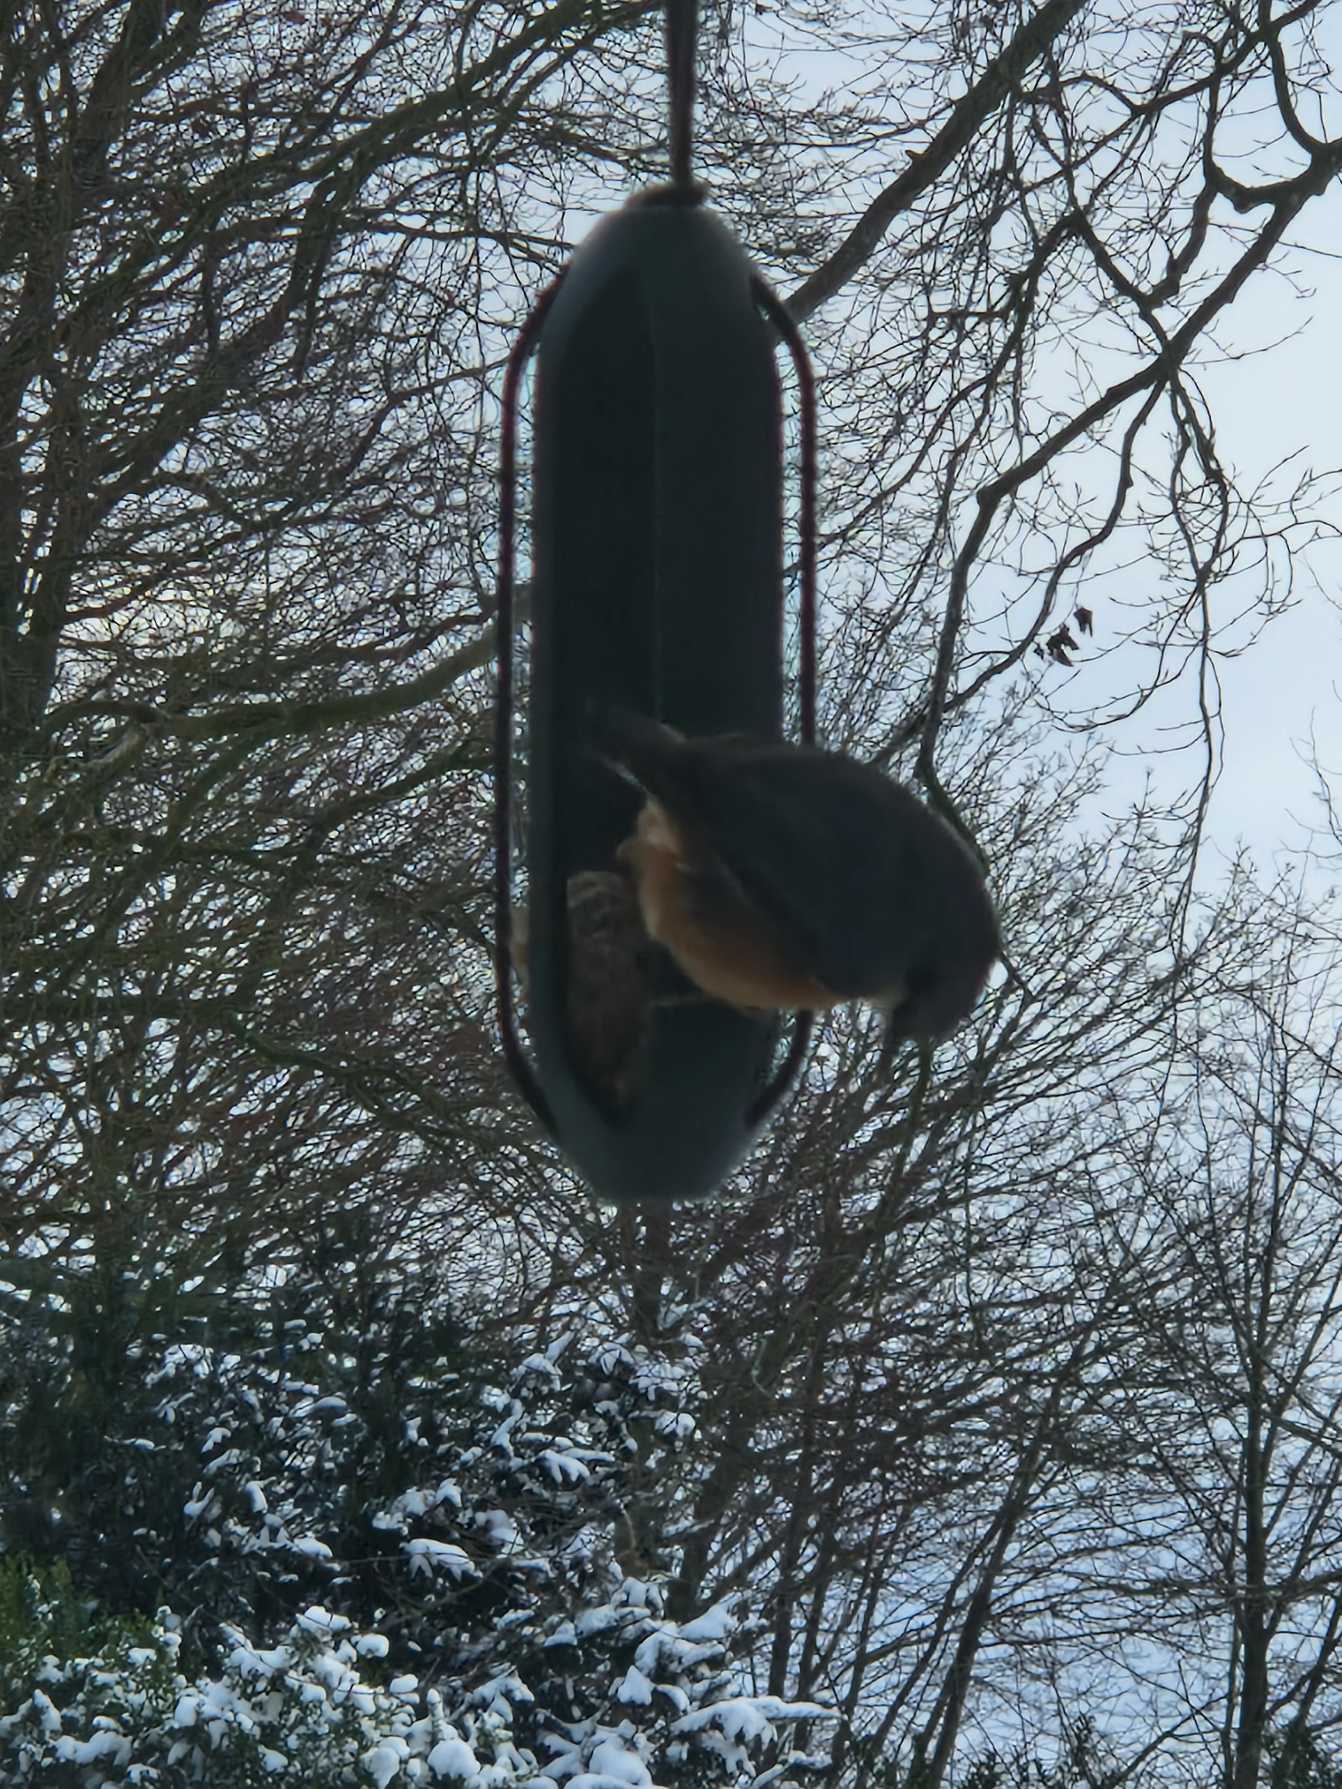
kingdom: Animalia
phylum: Chordata
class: Aves
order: Passeriformes
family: Sittidae
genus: Sitta
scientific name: Sitta europaea
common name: Spætmejse
